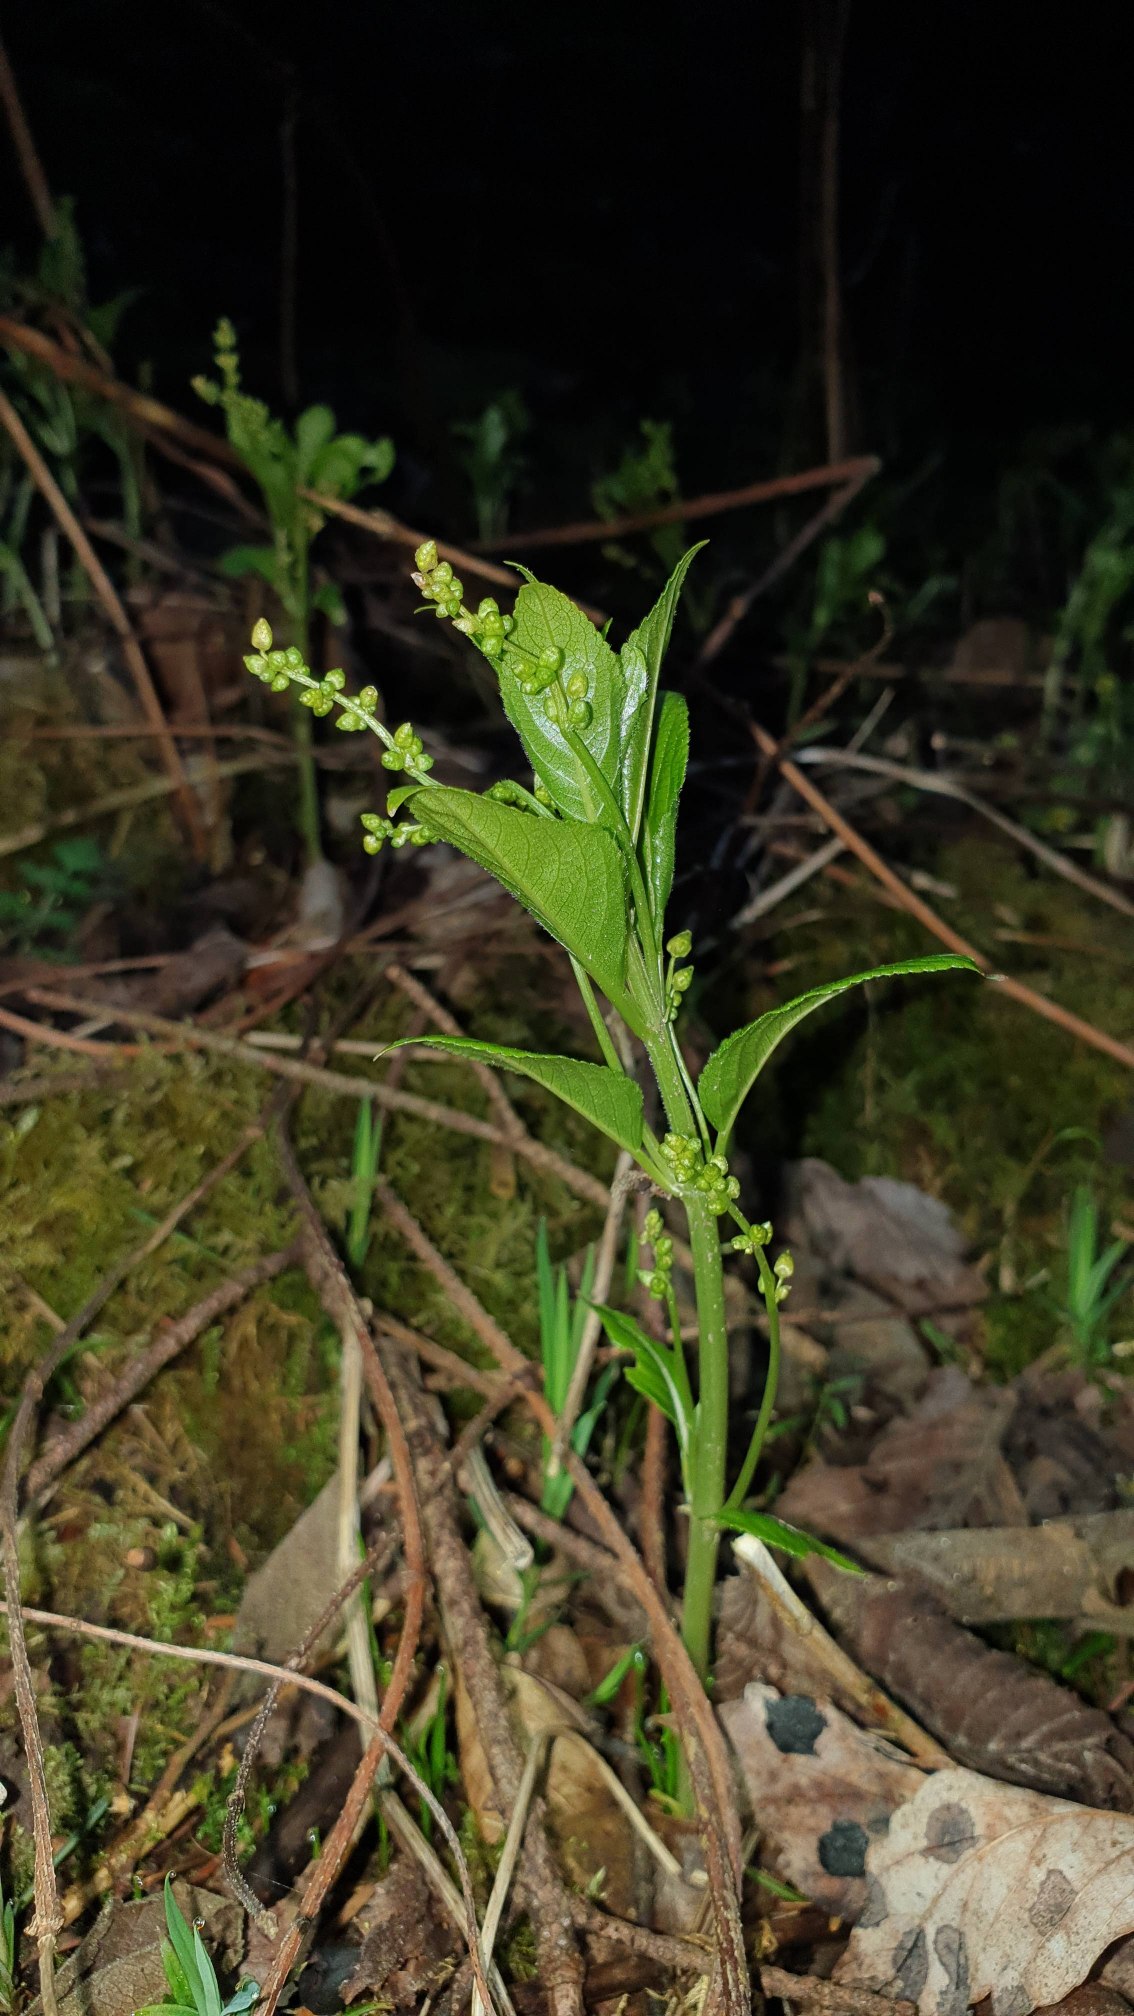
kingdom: Plantae
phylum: Tracheophyta
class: Magnoliopsida
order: Malpighiales
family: Euphorbiaceae
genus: Mercurialis
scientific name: Mercurialis perennis
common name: Almindelig bingelurt
